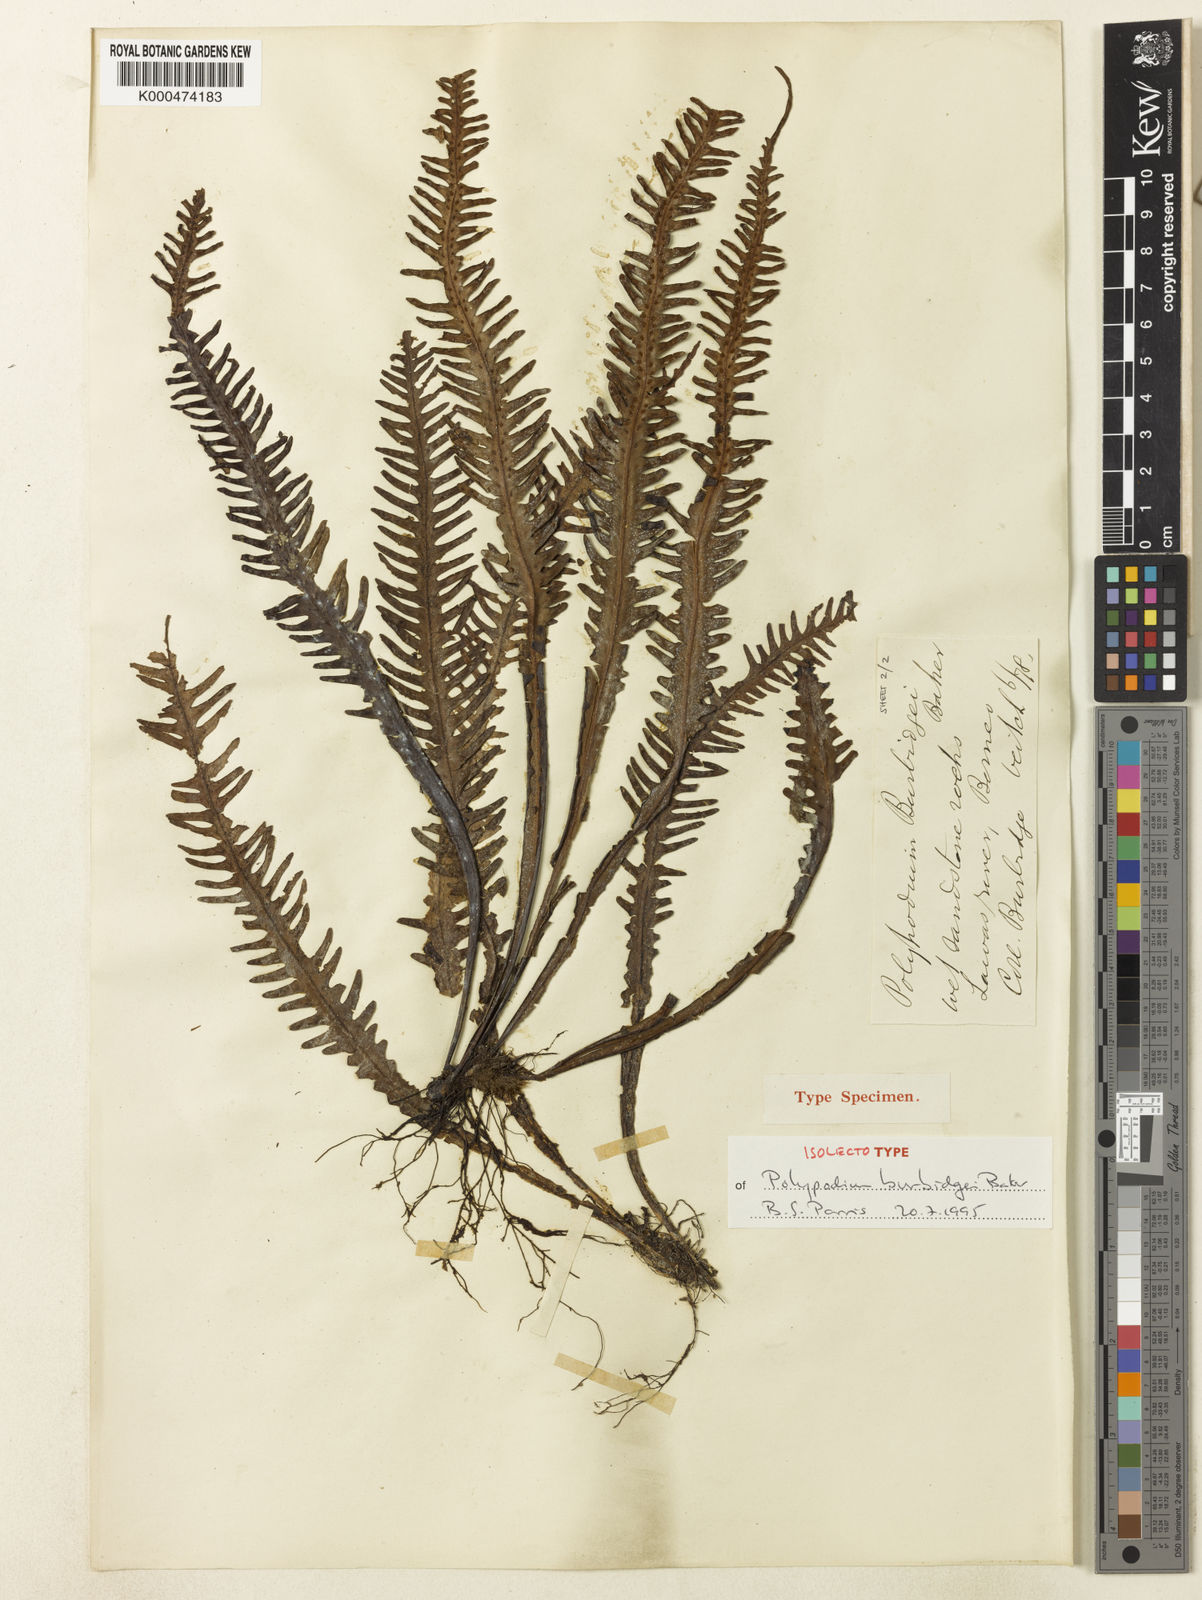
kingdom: Plantae
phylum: Tracheophyta
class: Polypodiopsida
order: Polypodiales
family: Polypodiaceae
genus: Prosaptia
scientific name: Prosaptia burbidgei
